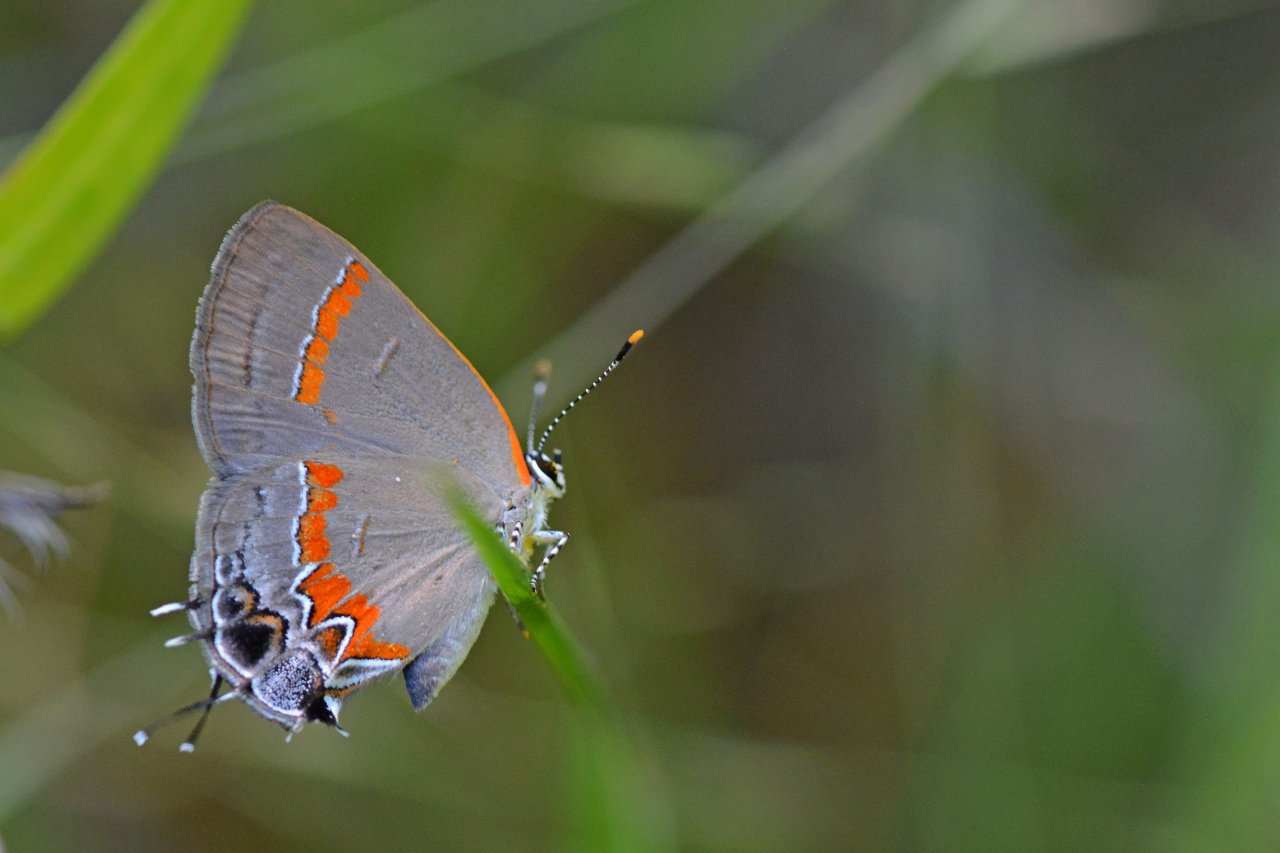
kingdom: Animalia
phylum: Arthropoda
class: Insecta
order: Lepidoptera
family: Lycaenidae
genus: Calycopis
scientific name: Calycopis cecrops
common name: Red-banded Hairstreak
